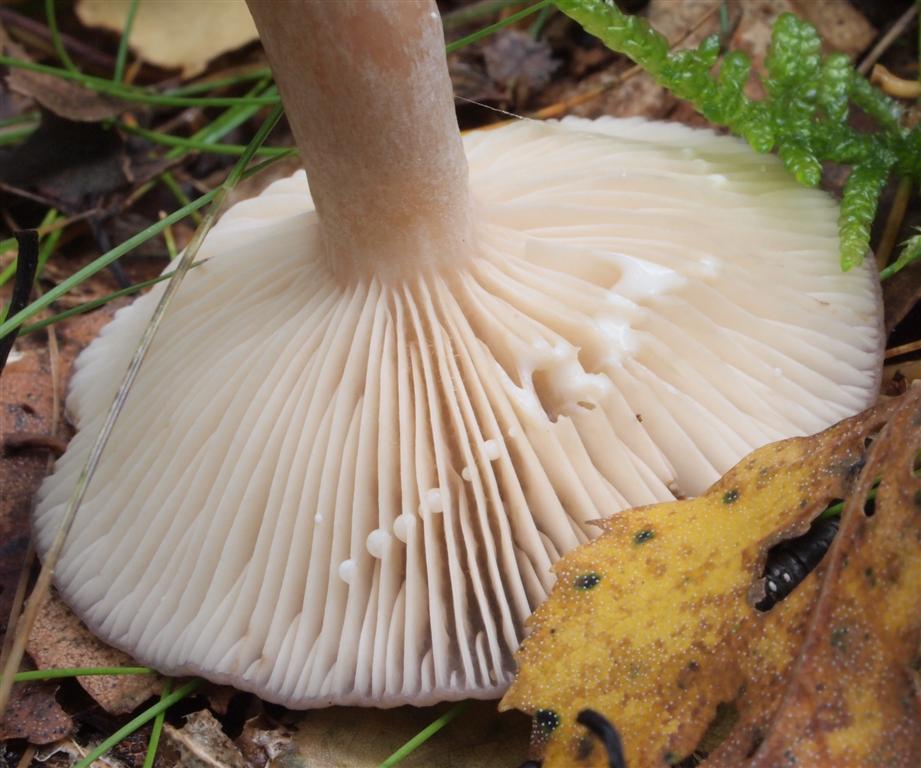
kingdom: Fungi
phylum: Basidiomycota
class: Agaricomycetes
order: Russulales
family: Russulaceae
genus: Lactarius
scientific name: Lactarius vietus
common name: violetgrå mælkehat
